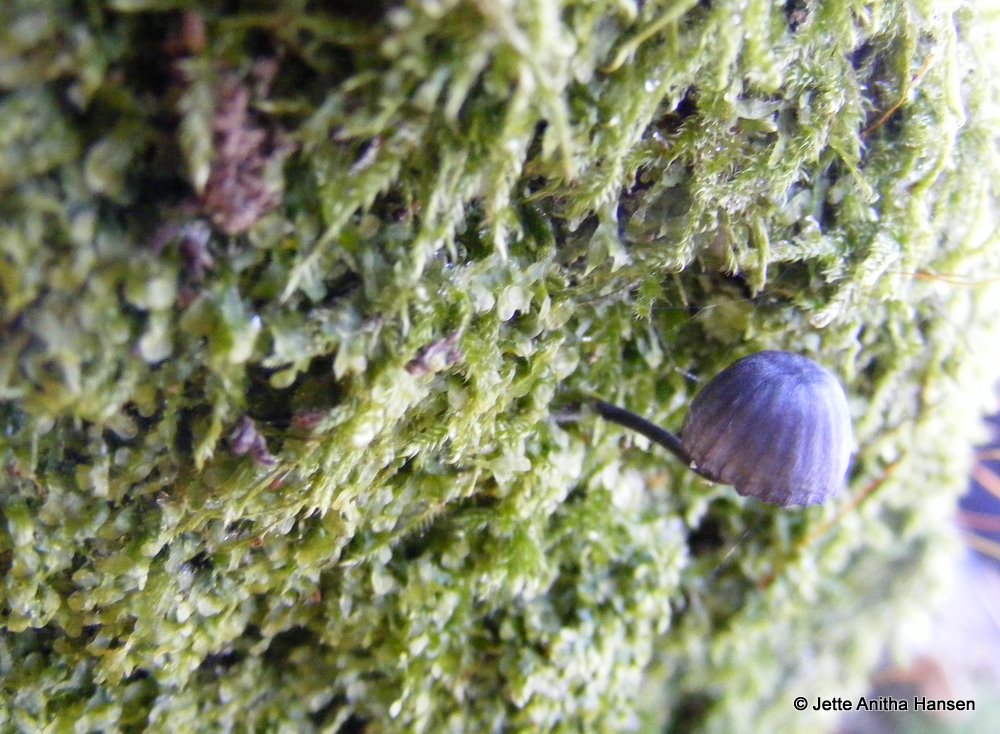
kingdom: Fungi
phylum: Basidiomycota
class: Agaricomycetes
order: Agaricales
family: Mycenaceae
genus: Mycena
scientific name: Mycena pseudocorticola
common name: gråblå bark-huesvamp
